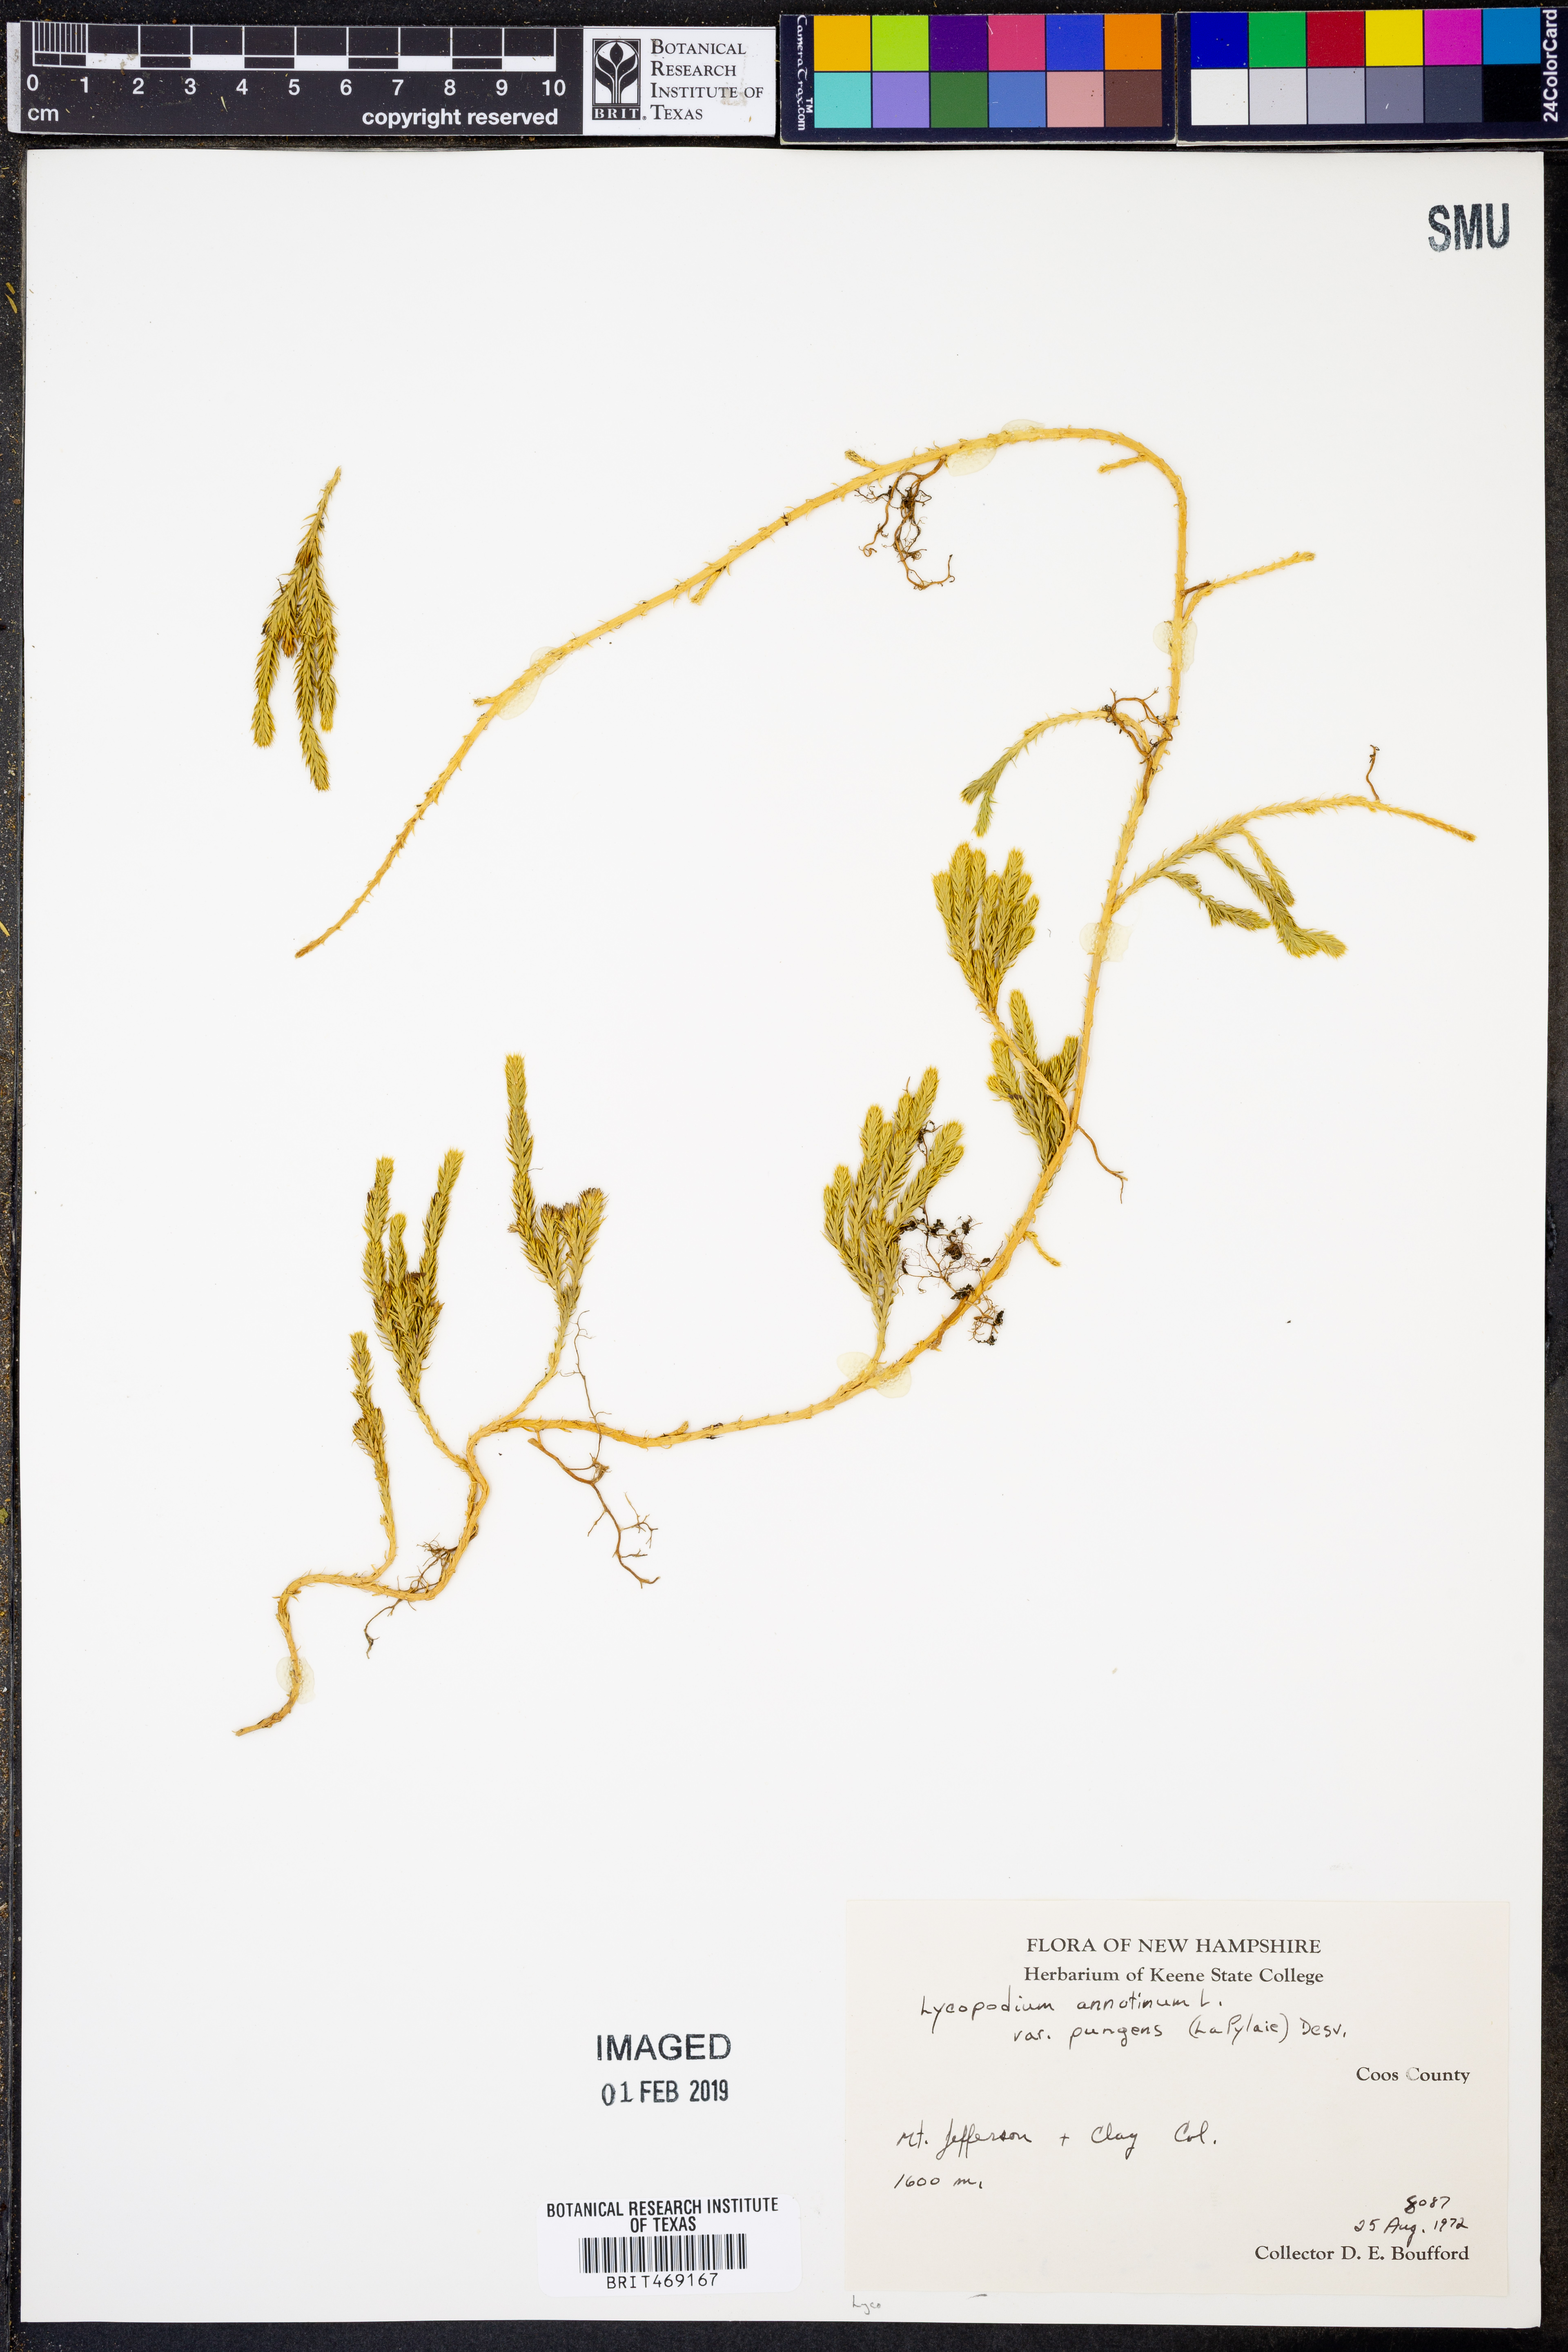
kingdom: Plantae
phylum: Tracheophyta
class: Lycopodiopsida
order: Lycopodiales
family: Lycopodiaceae
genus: Spinulum
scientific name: Spinulum annotinum
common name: Interrupted club-moss
